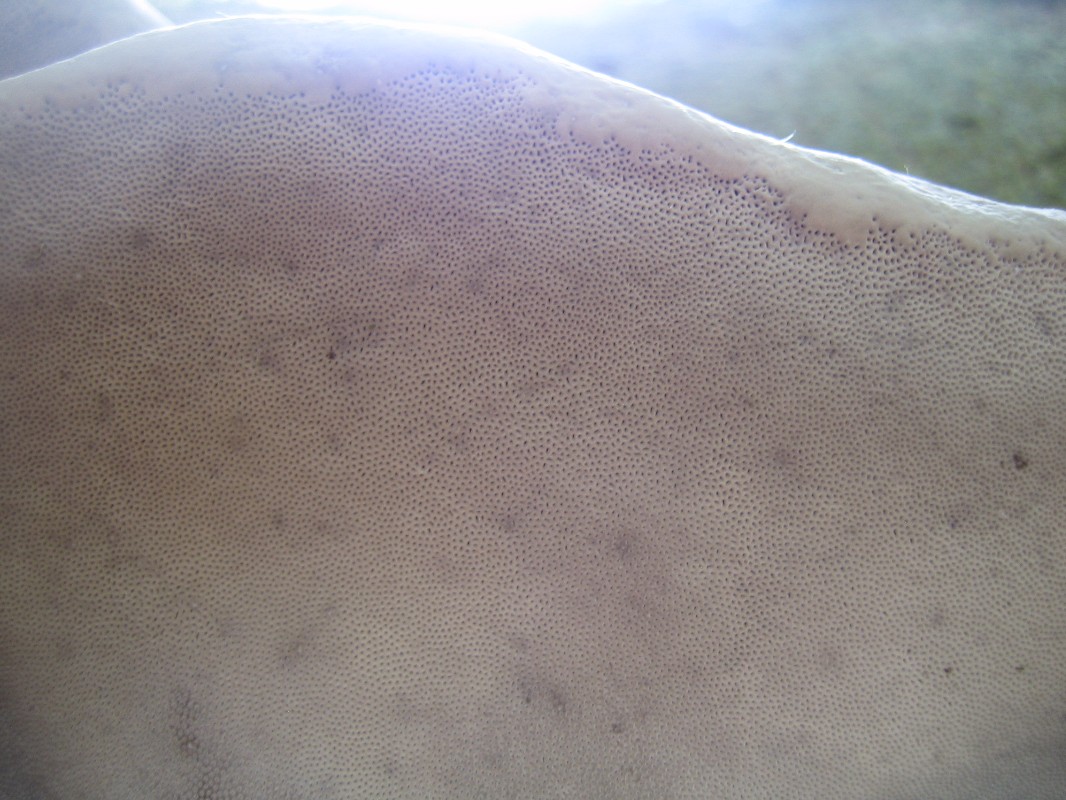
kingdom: Fungi
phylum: Basidiomycota
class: Agaricomycetes
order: Polyporales
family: Polyporaceae
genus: Fomes
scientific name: Fomes
